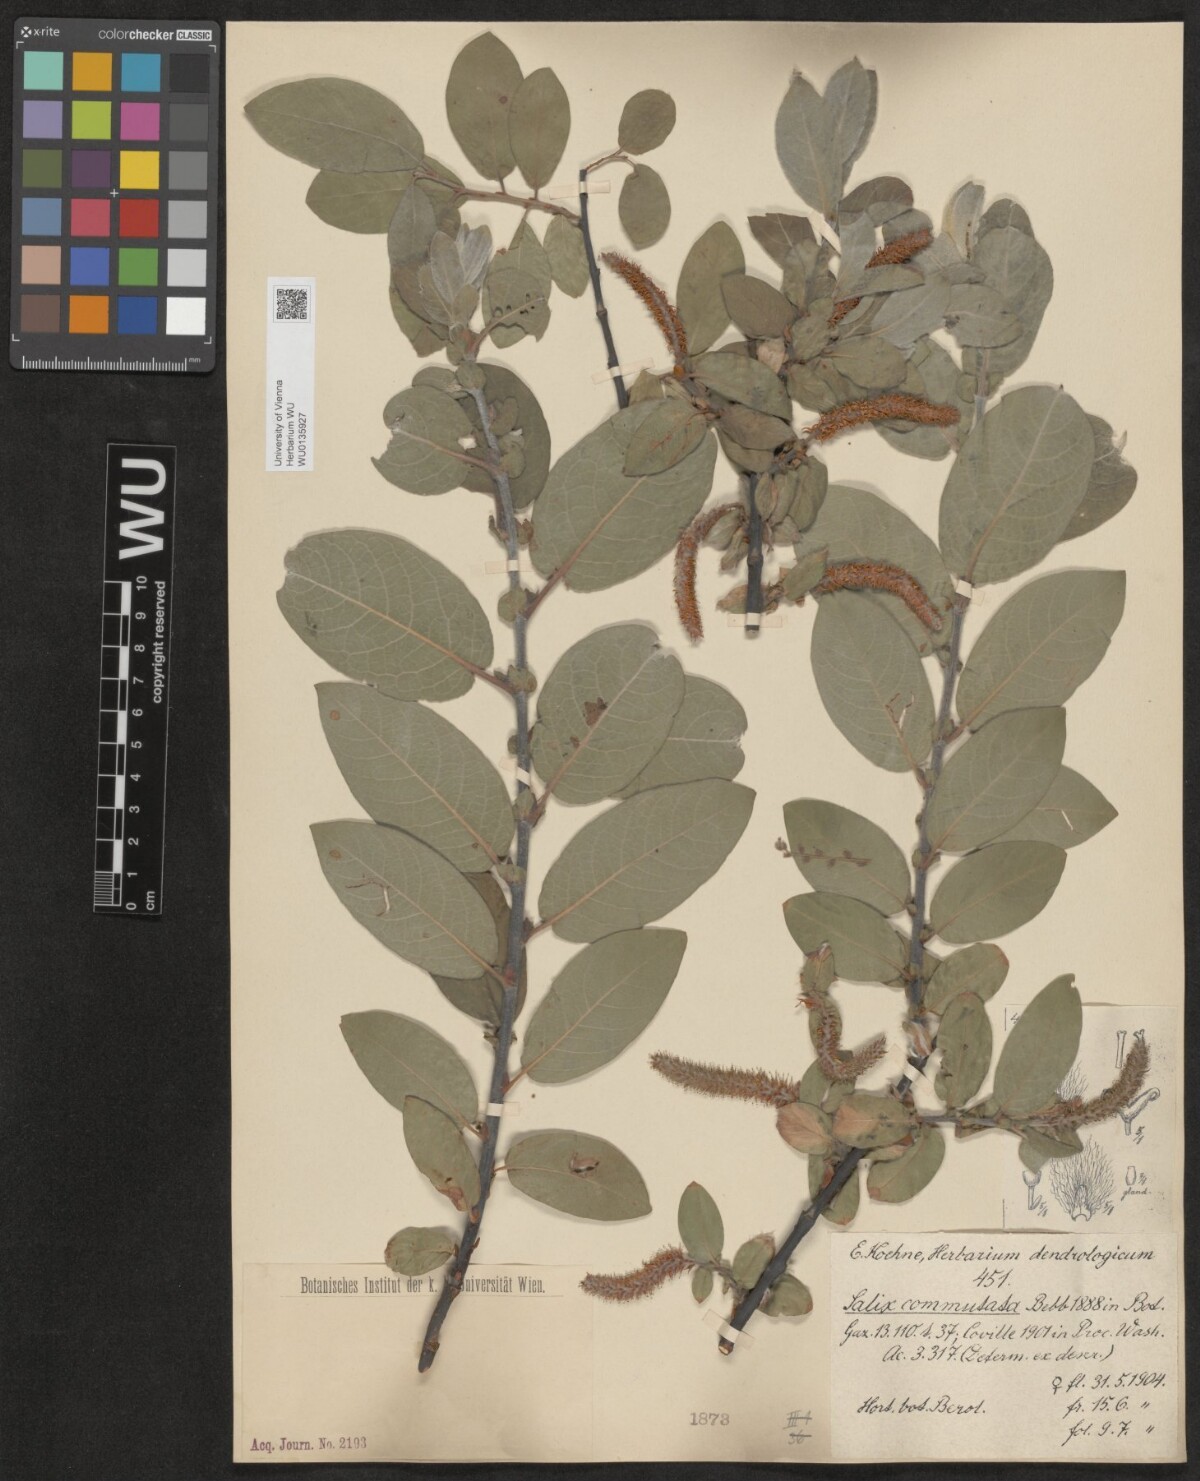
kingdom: Plantae
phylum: Tracheophyta
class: Magnoliopsida
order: Malpighiales
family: Salicaceae
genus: Salix
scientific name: Salix commutata
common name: Under-green willow
